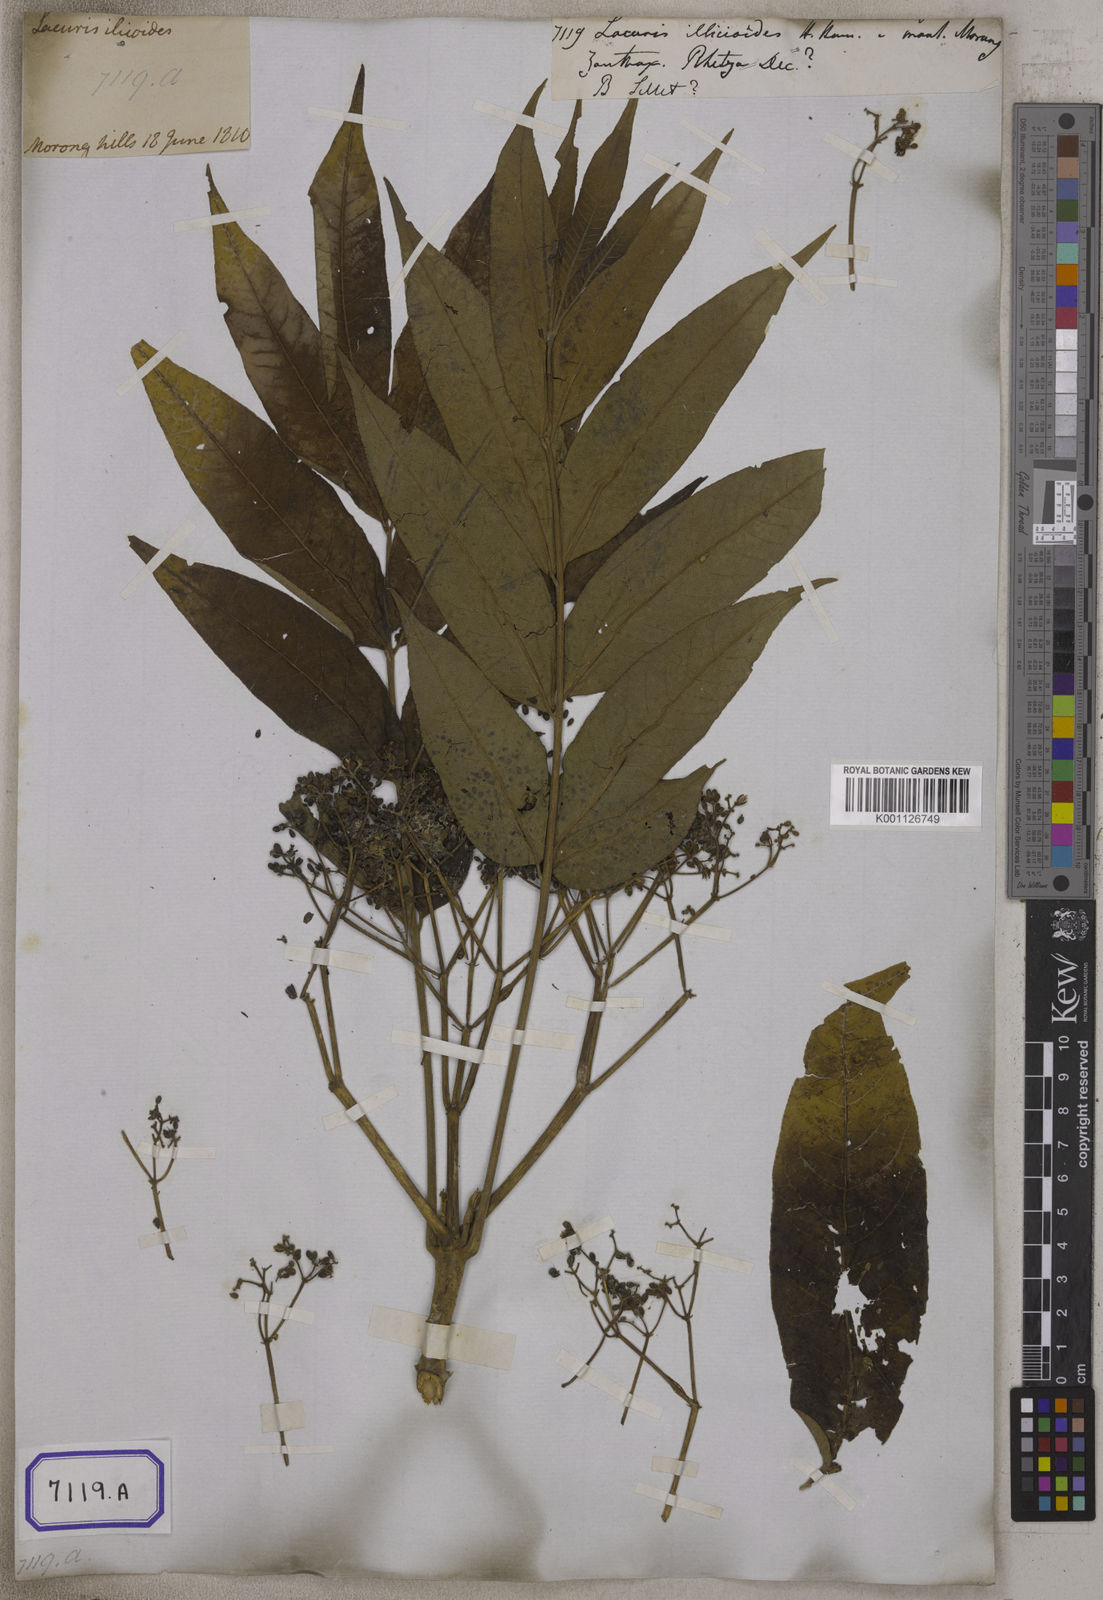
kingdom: Plantae
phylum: Tracheophyta
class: Magnoliopsida
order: Sapindales
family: Rutaceae
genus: Zanthoxylum
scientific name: Zanthoxylum rhetsa
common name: Indian ivy-rue
